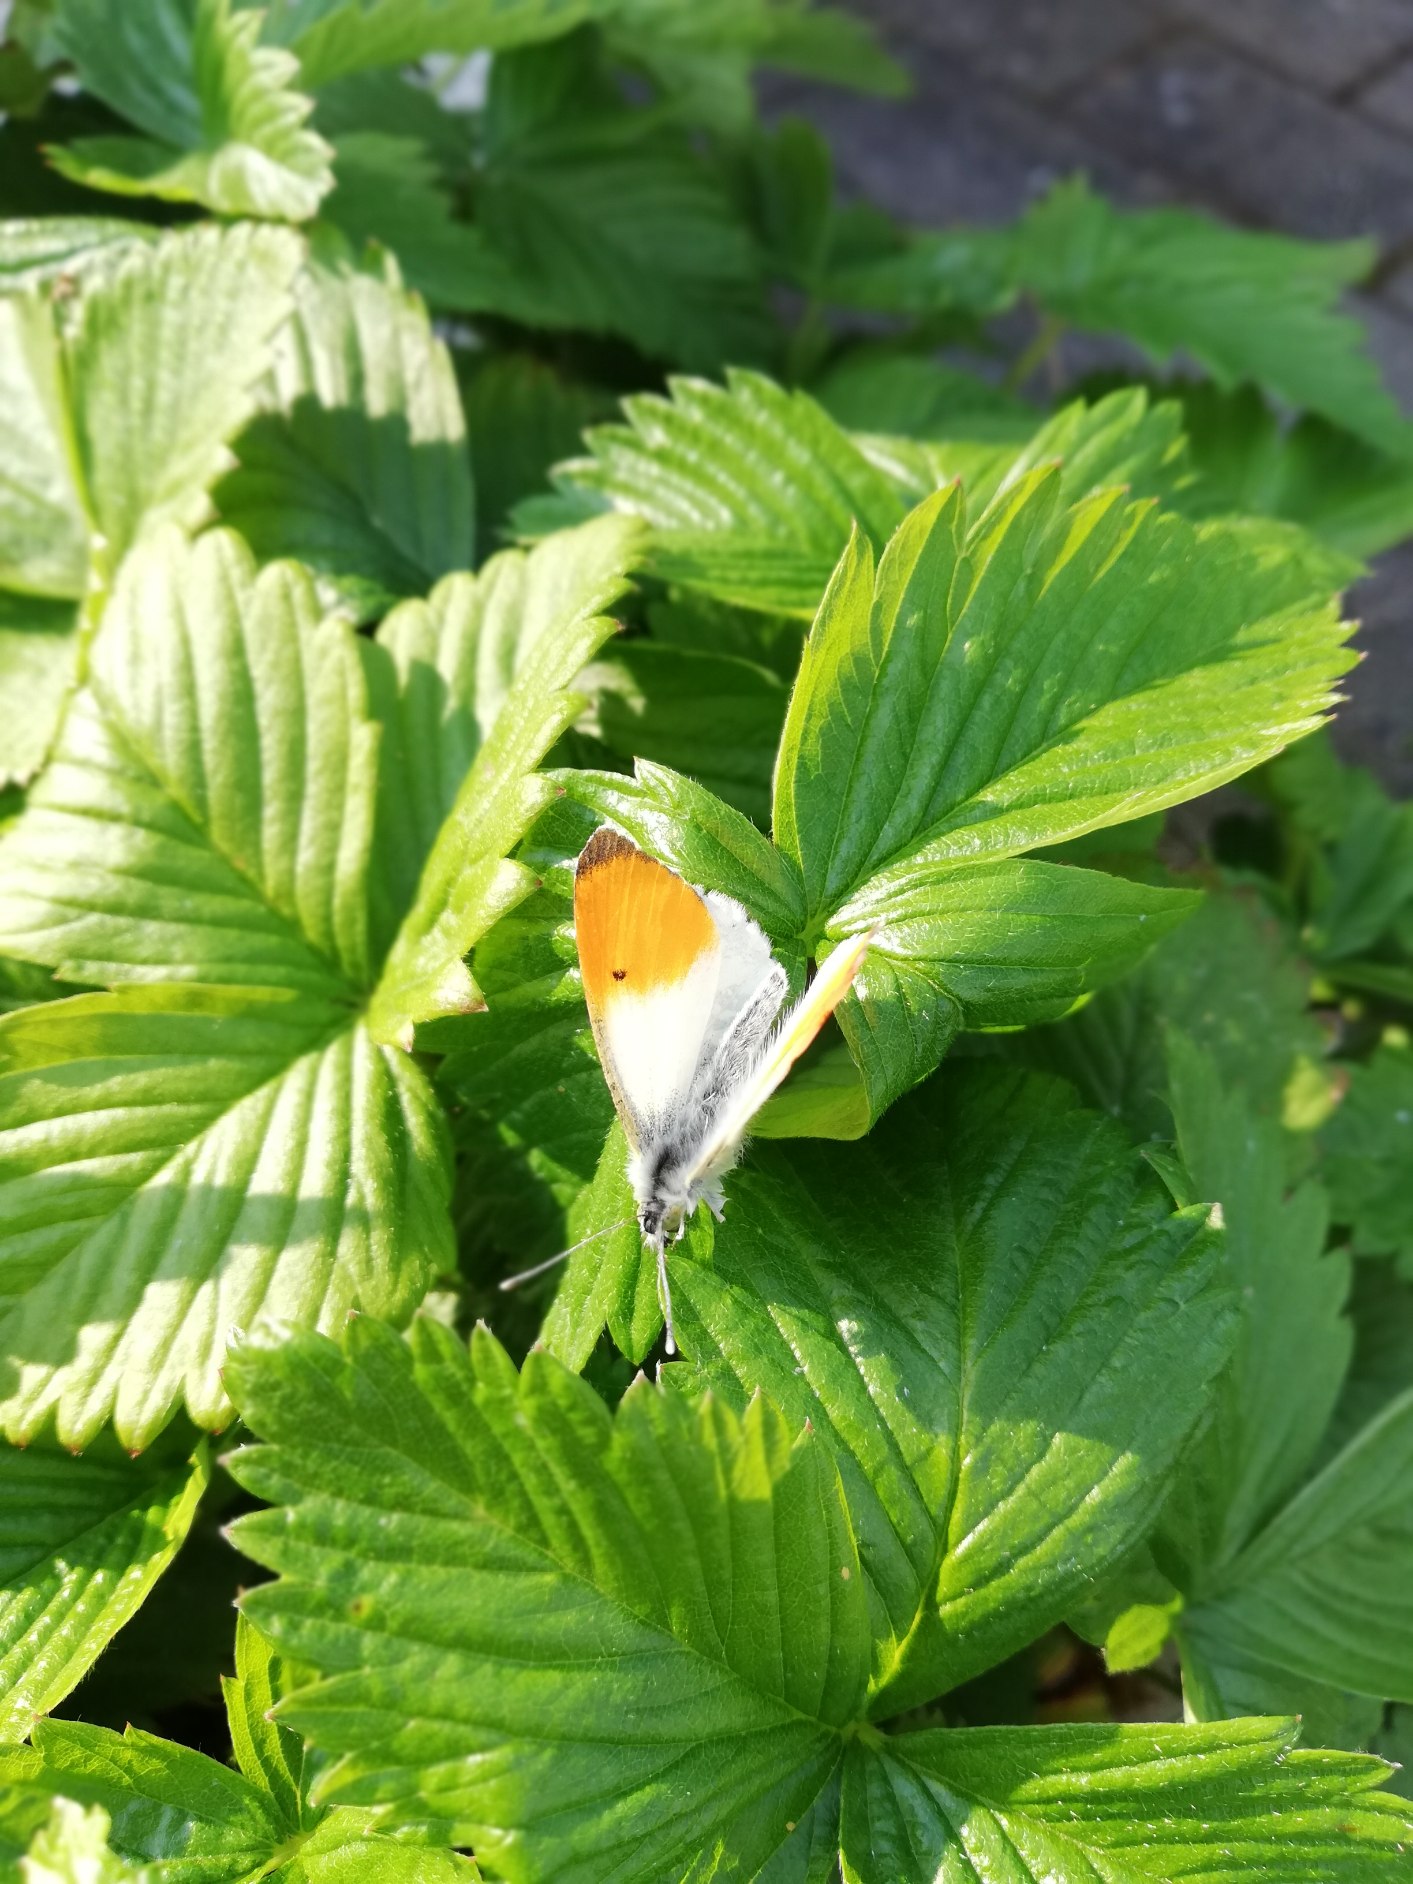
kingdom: Animalia
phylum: Arthropoda
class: Insecta
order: Lepidoptera
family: Pieridae
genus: Anthocharis
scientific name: Anthocharis cardamines
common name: Aurora
